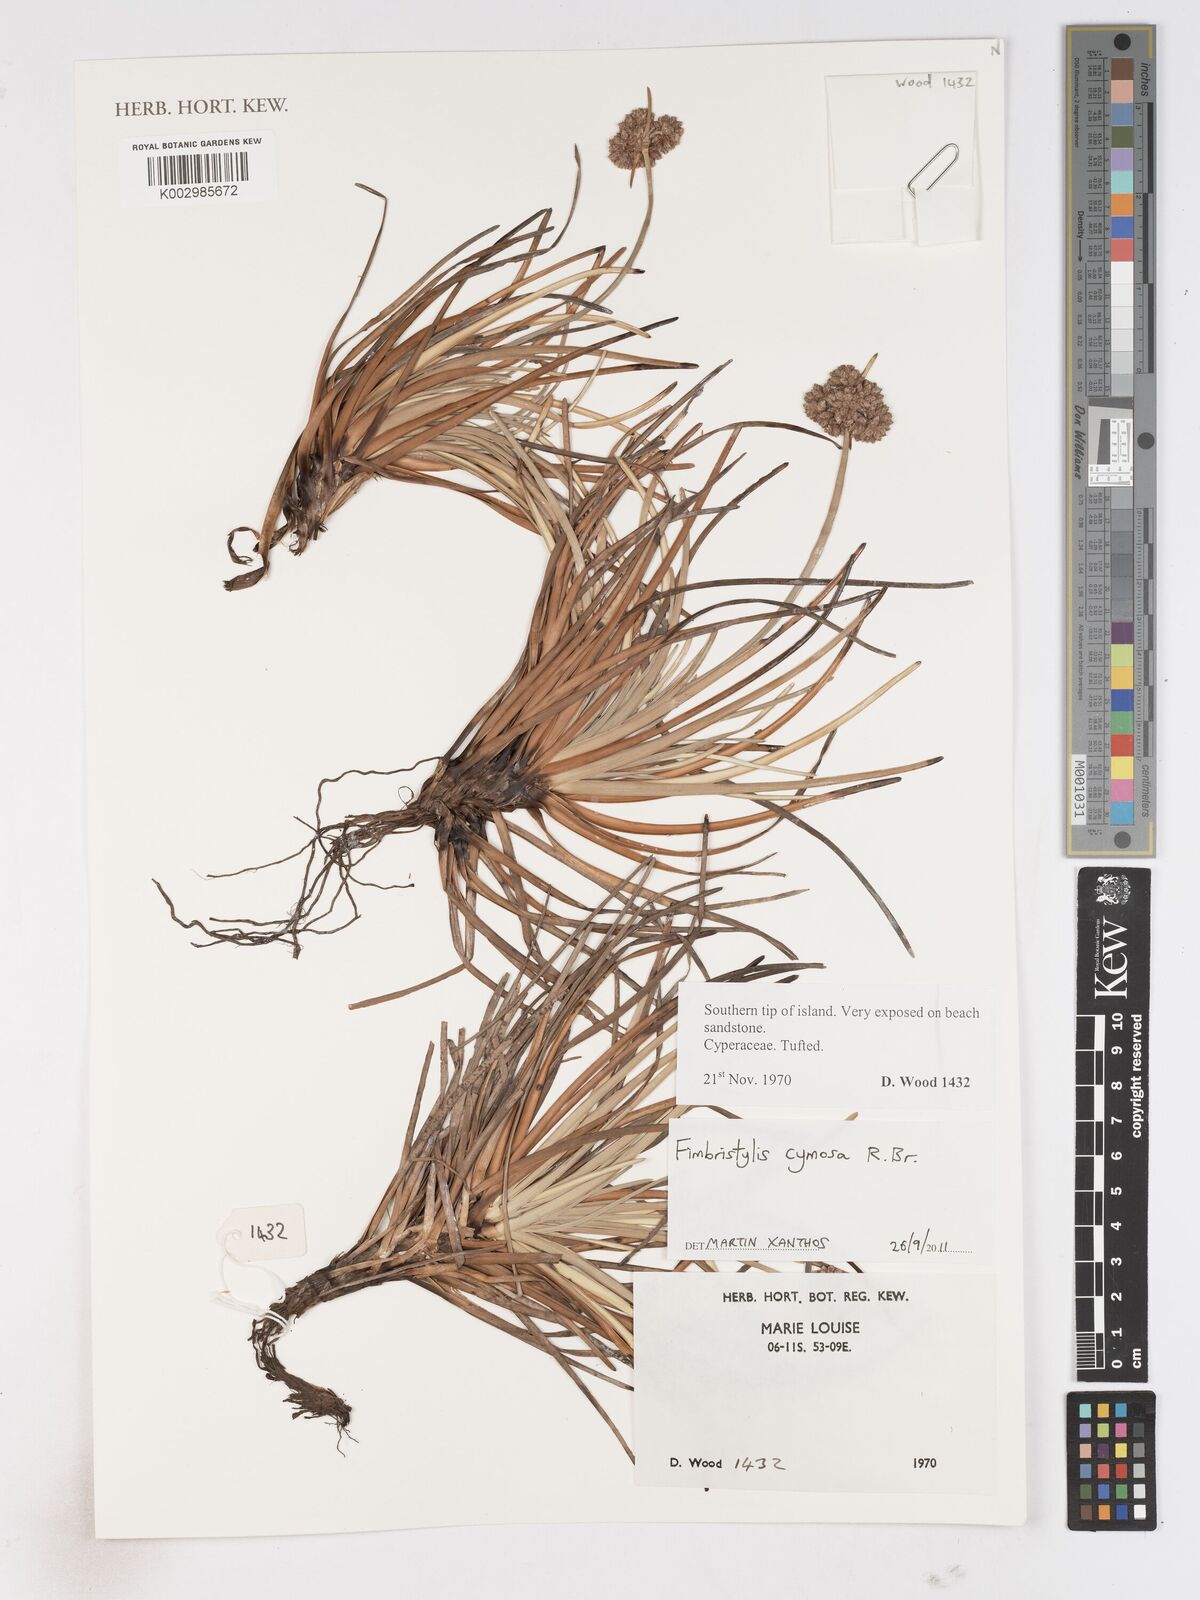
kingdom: Plantae
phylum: Tracheophyta
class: Liliopsida
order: Poales
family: Cyperaceae
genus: Fimbristylis
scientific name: Fimbristylis cymosa
